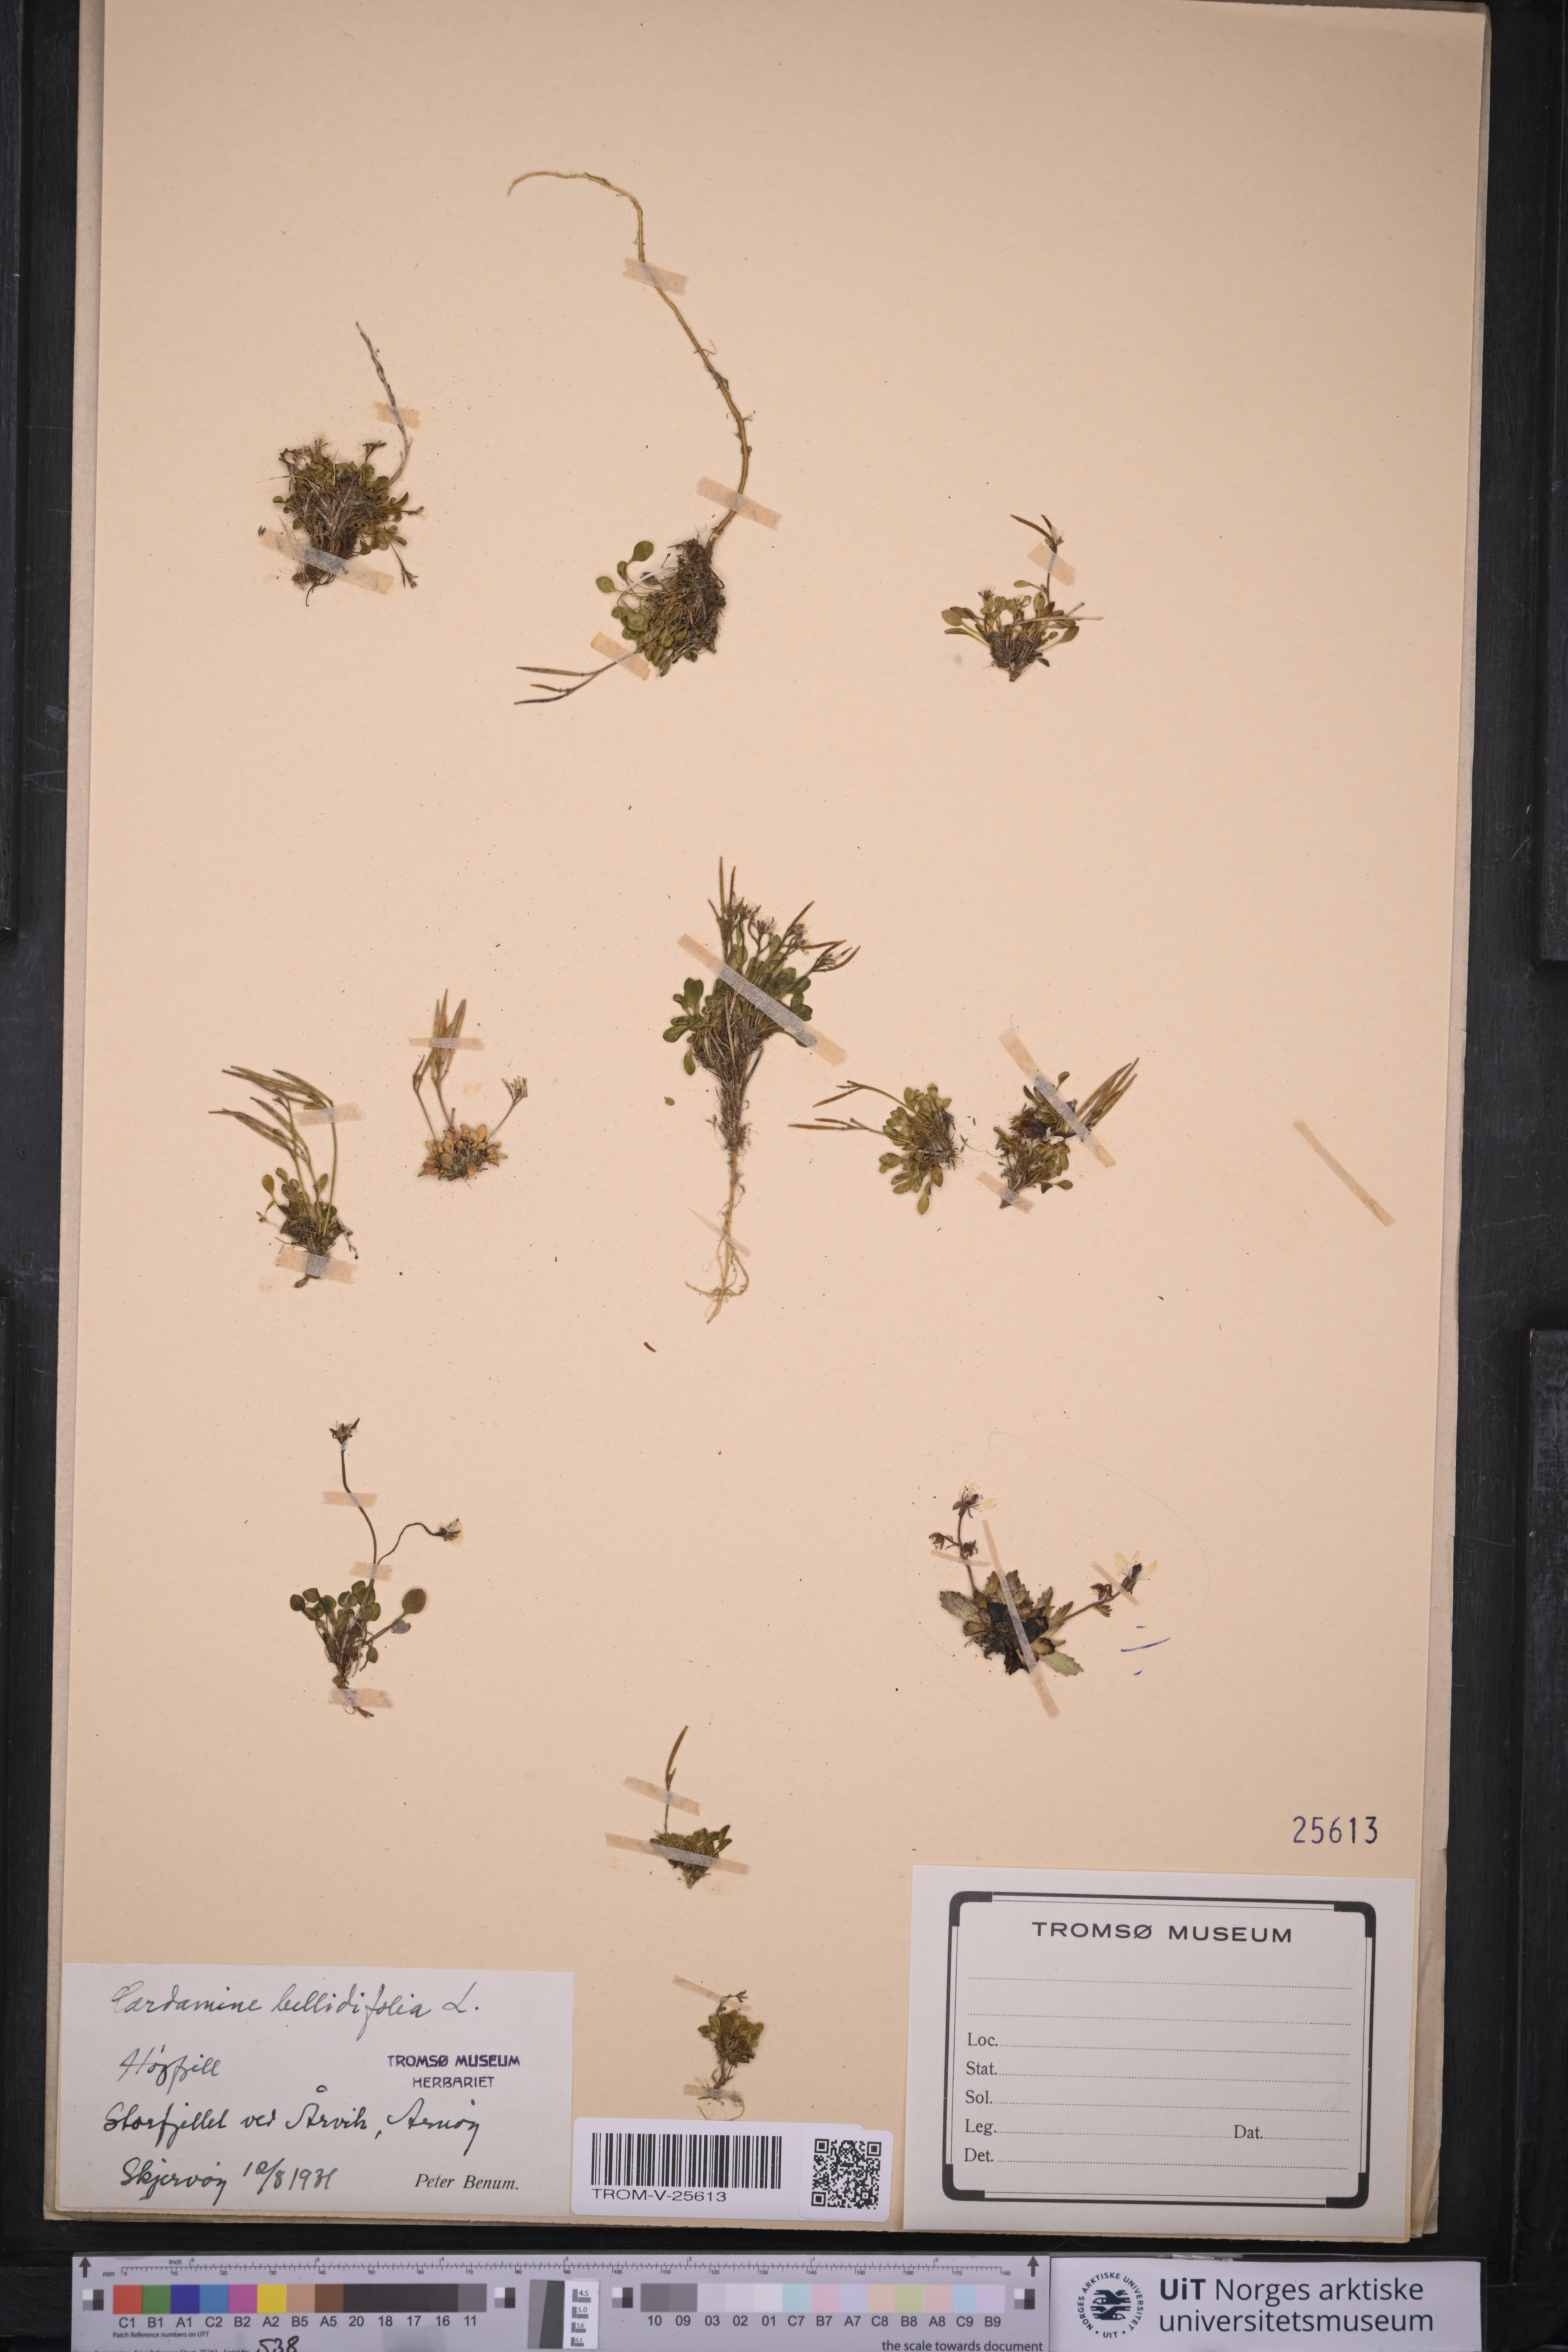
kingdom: Plantae
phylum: Tracheophyta
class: Magnoliopsida
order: Brassicales
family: Brassicaceae
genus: Cardamine
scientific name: Cardamine bellidifolia
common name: Alpine bittercress
